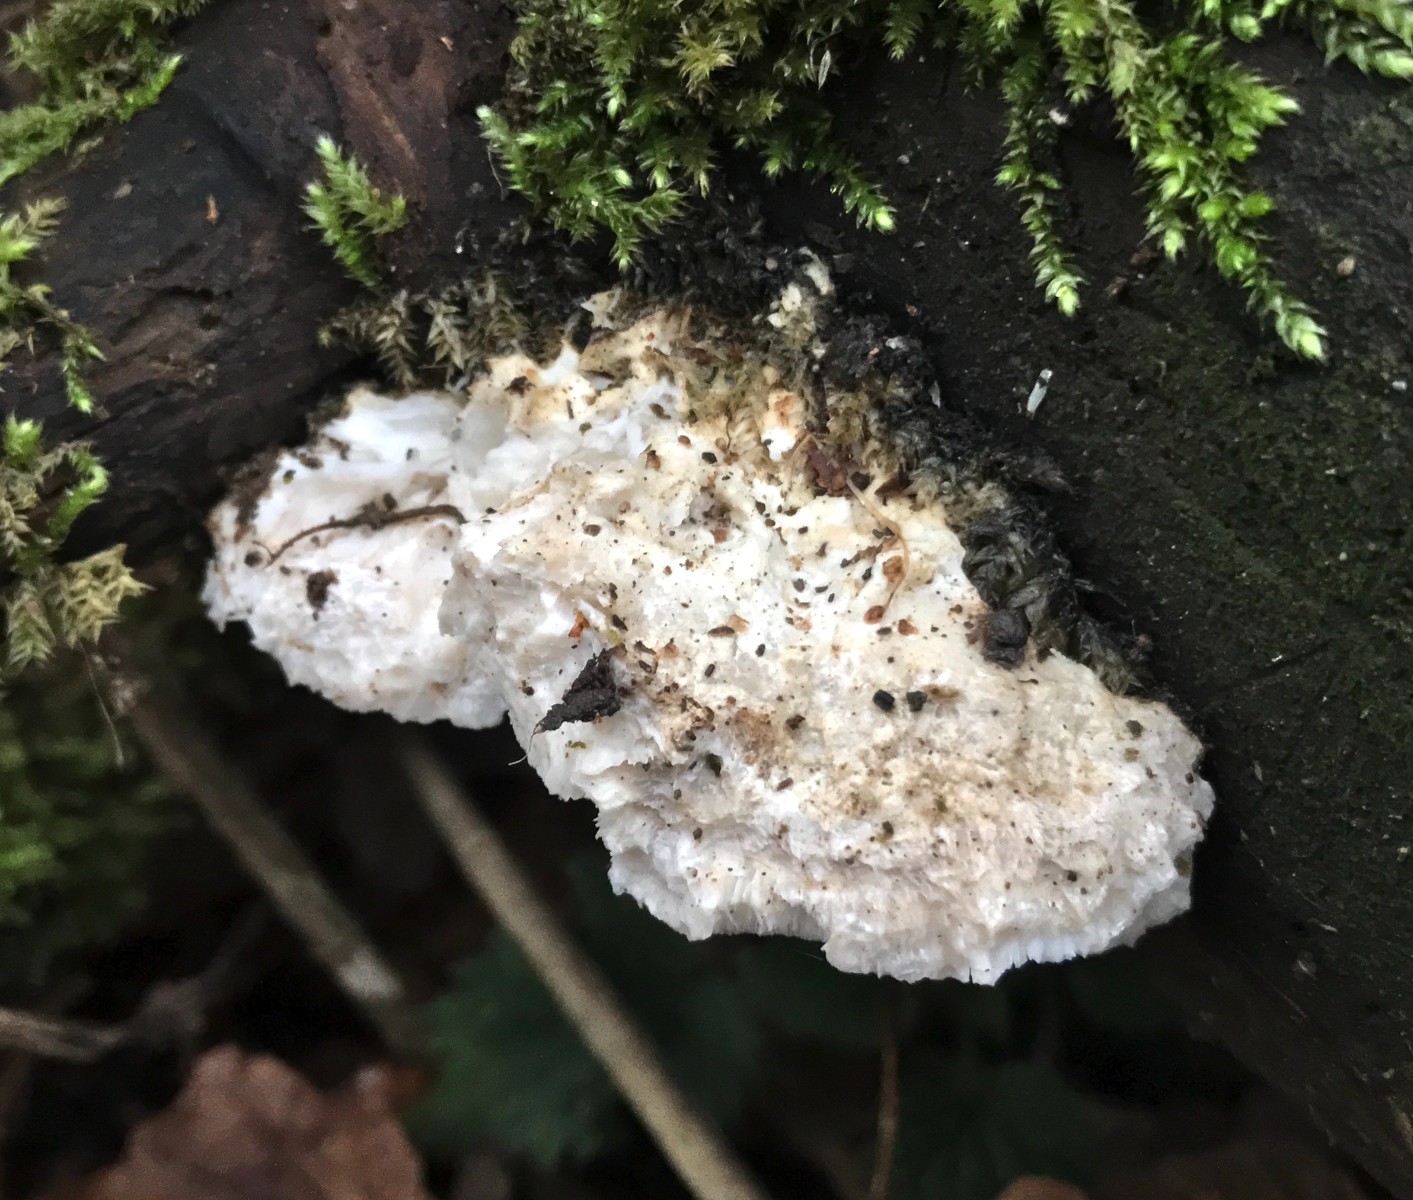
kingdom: Fungi
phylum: Basidiomycota
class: Agaricomycetes
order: Polyporales
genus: Amaropostia
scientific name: Amaropostia stiptica
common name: bitter kødporesvamp
